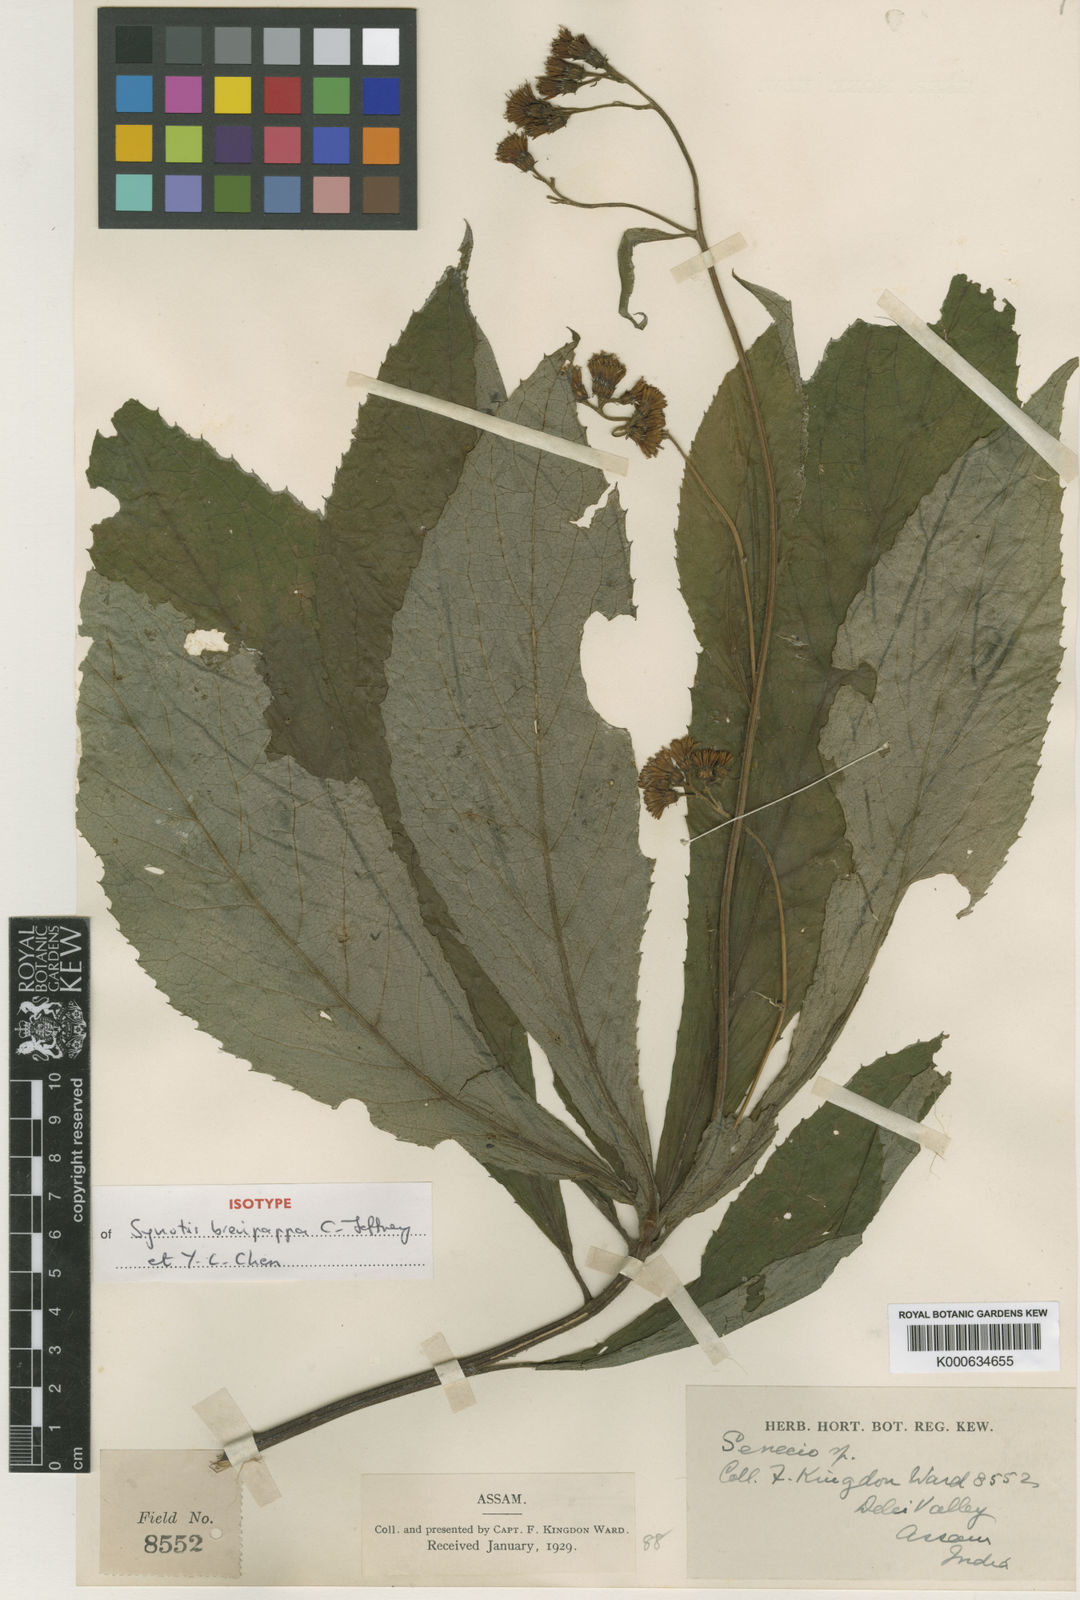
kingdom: Plantae
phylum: Tracheophyta
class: Magnoliopsida
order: Asterales
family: Asteraceae
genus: Synotis
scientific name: Synotis brevipappa
